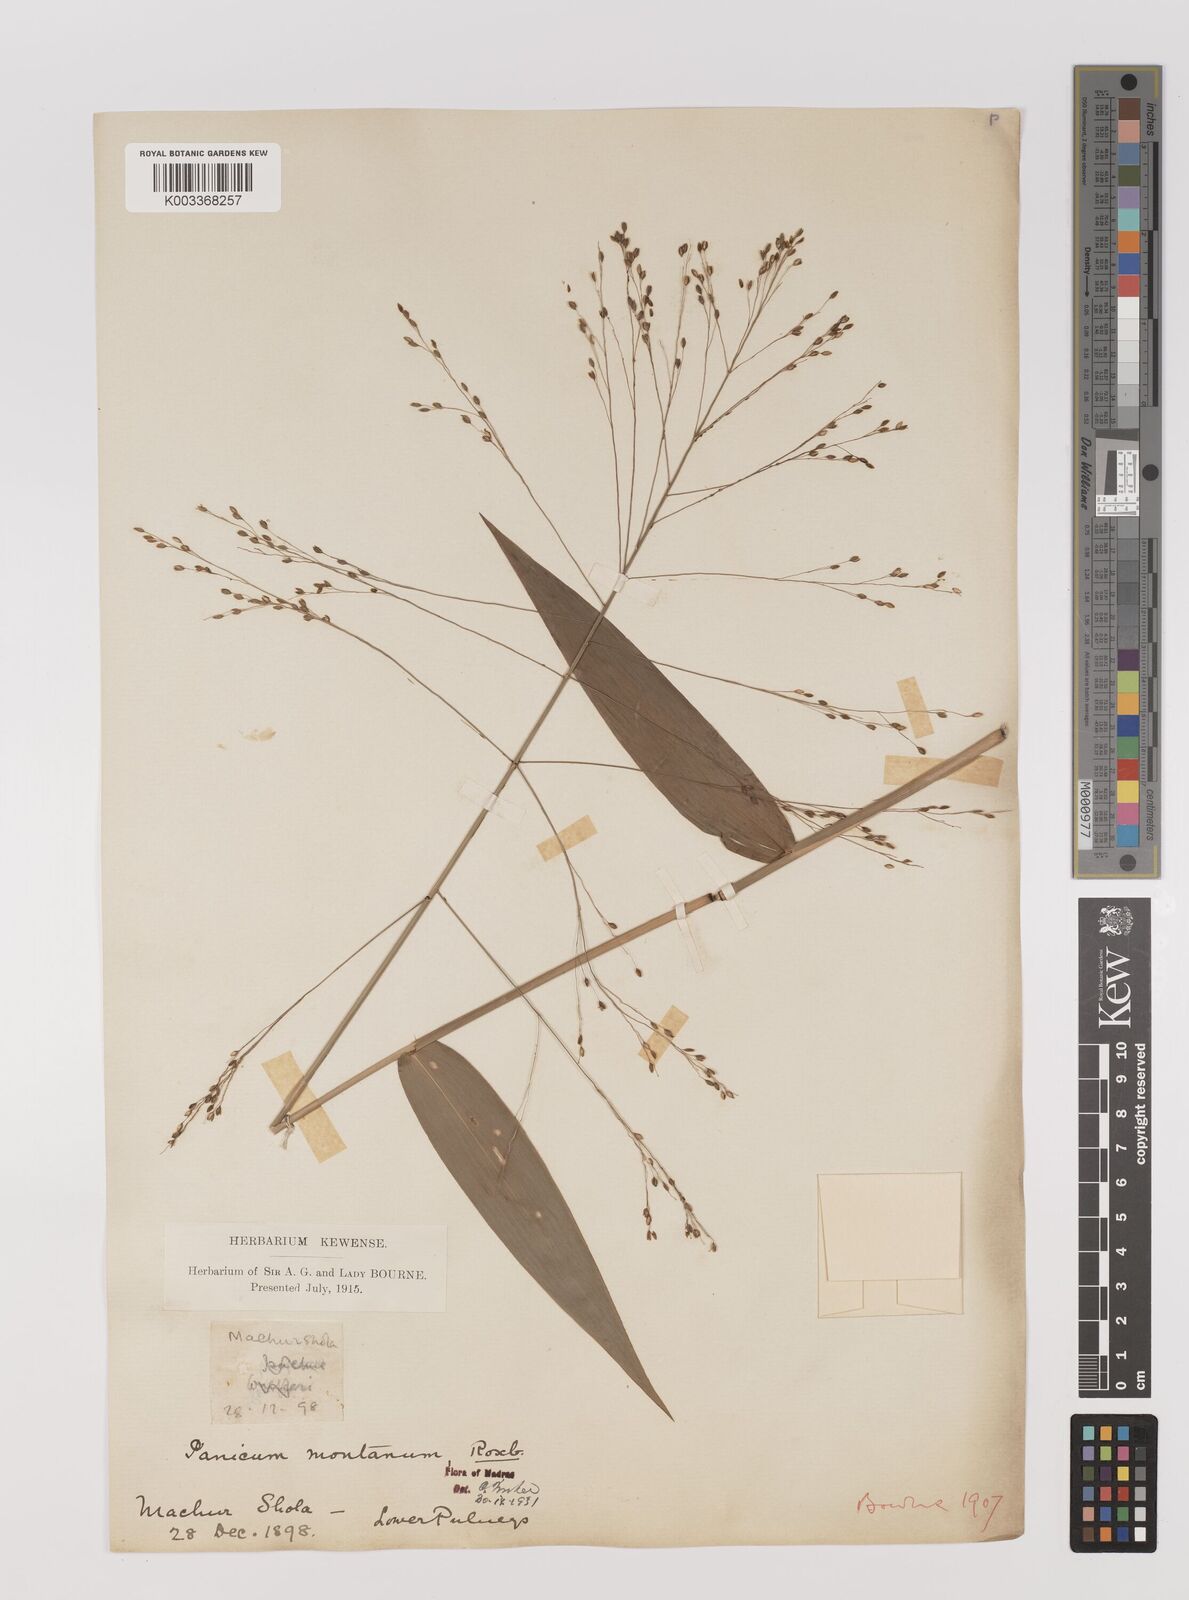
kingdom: Plantae
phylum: Tracheophyta
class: Liliopsida
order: Poales
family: Poaceae
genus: Panicum
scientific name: Panicum notatum
